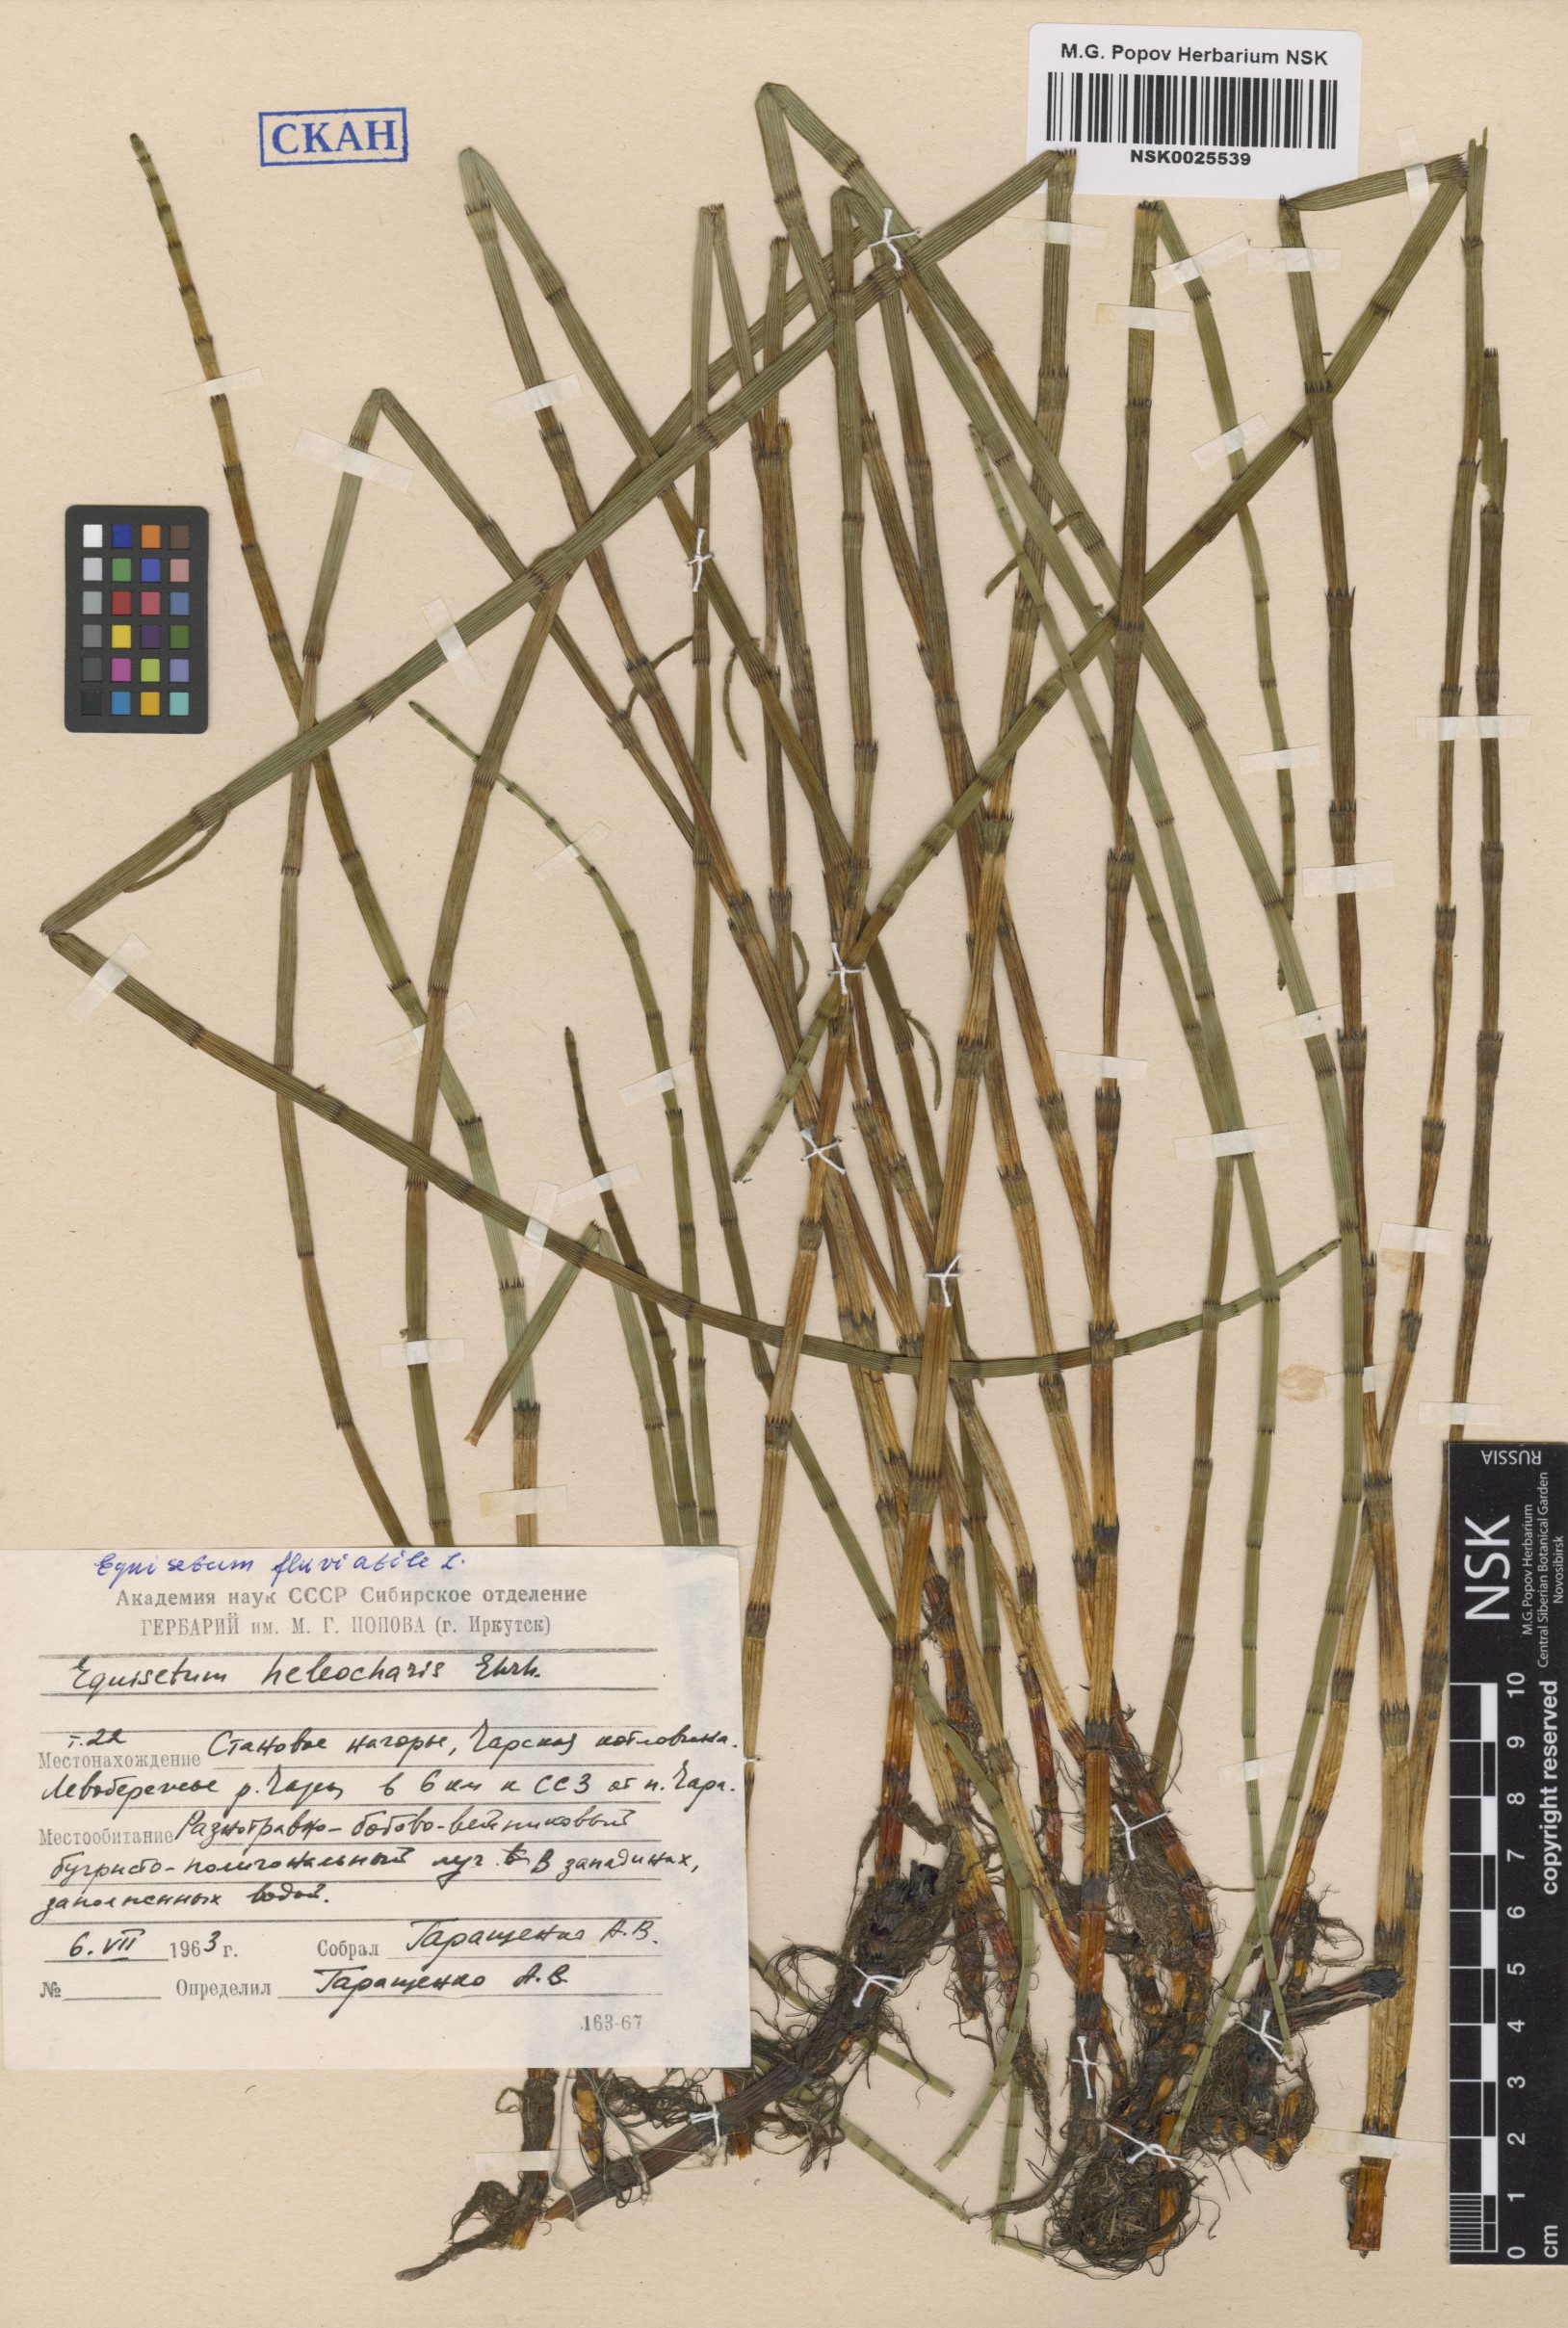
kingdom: Plantae
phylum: Tracheophyta
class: Polypodiopsida
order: Equisetales
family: Equisetaceae
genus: Equisetum
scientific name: Equisetum fluviatile
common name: Water horsetail
